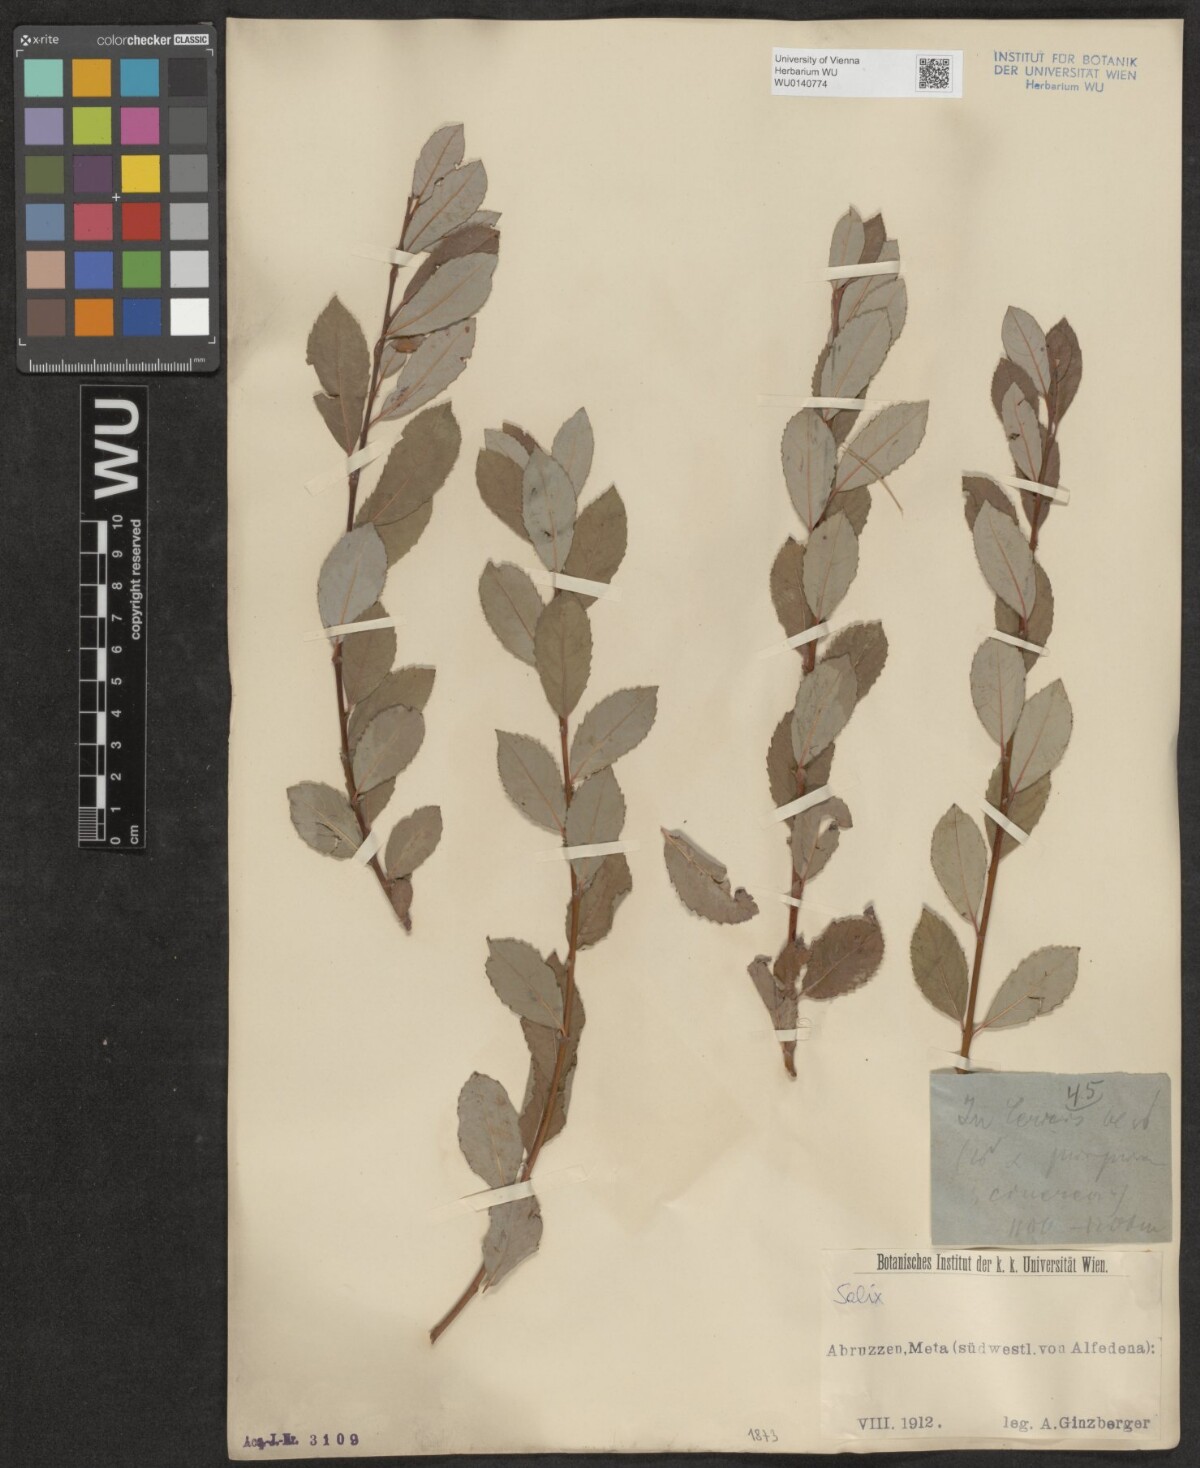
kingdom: Plantae
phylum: Tracheophyta
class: Magnoliopsida
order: Malpighiales
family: Salicaceae
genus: Salix
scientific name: Salix
